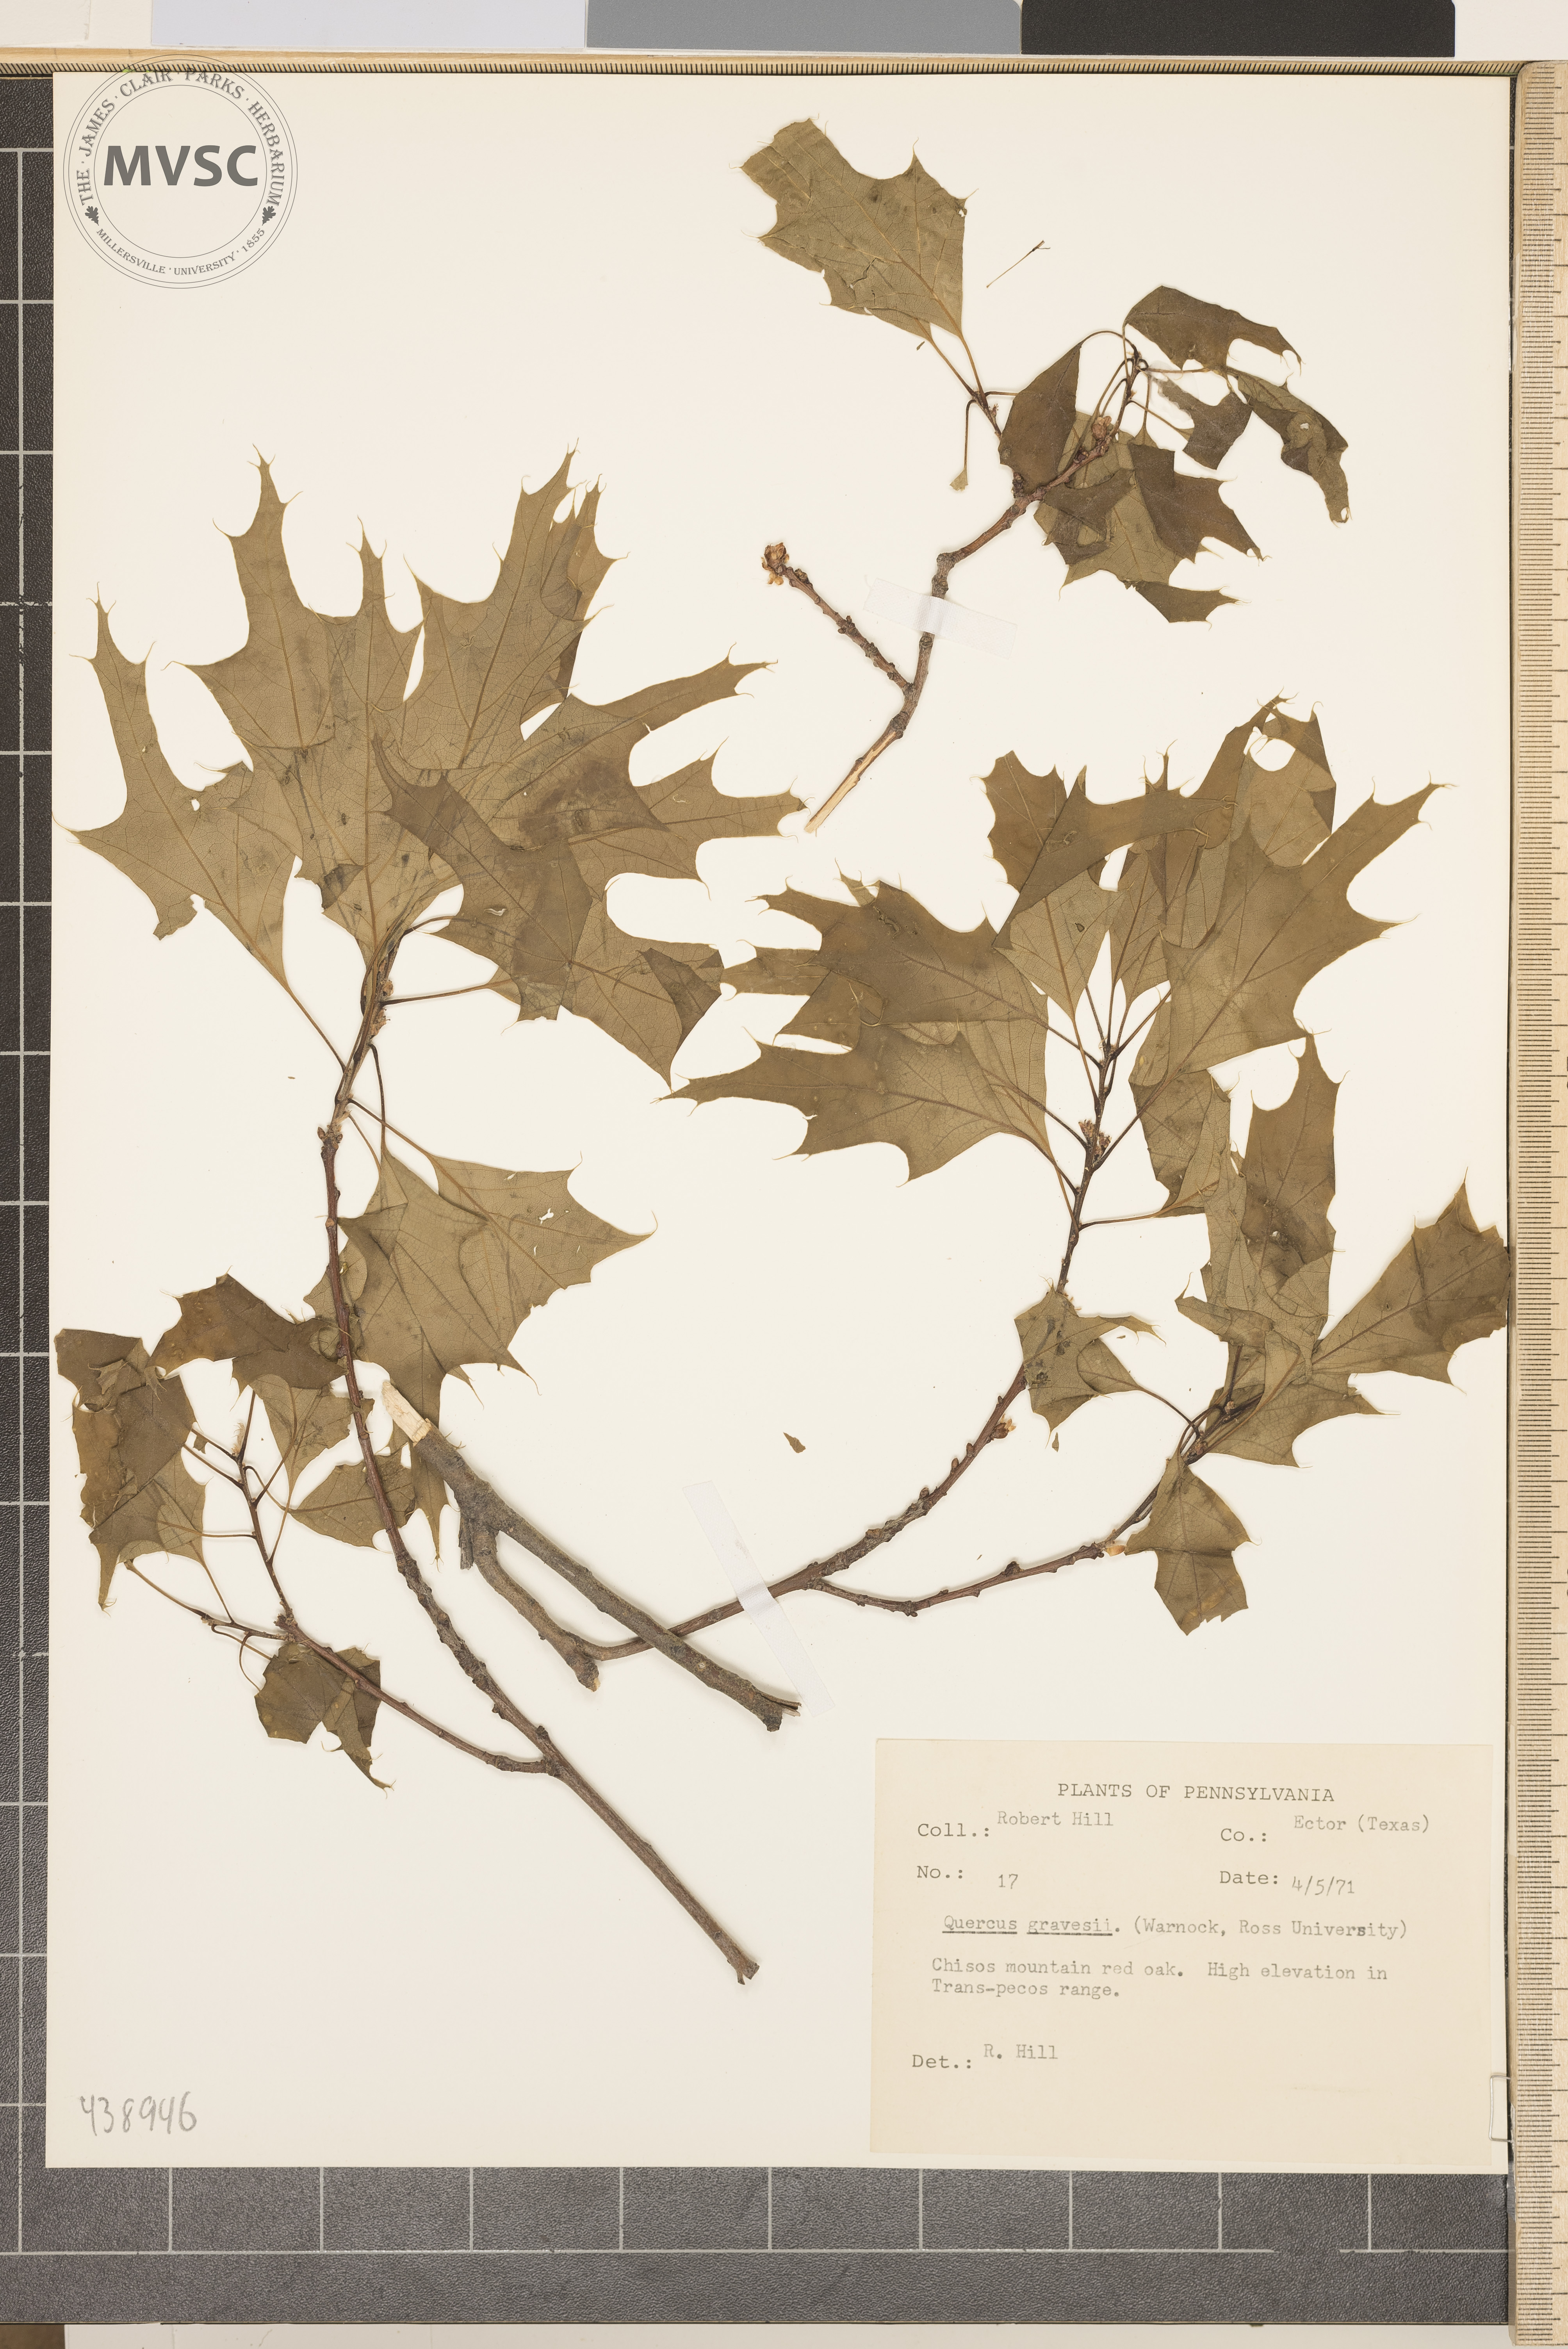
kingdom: Plantae
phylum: Tracheophyta
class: Magnoliopsida
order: Fagales
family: Fagaceae
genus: Quercus
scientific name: Quercus gravesii
